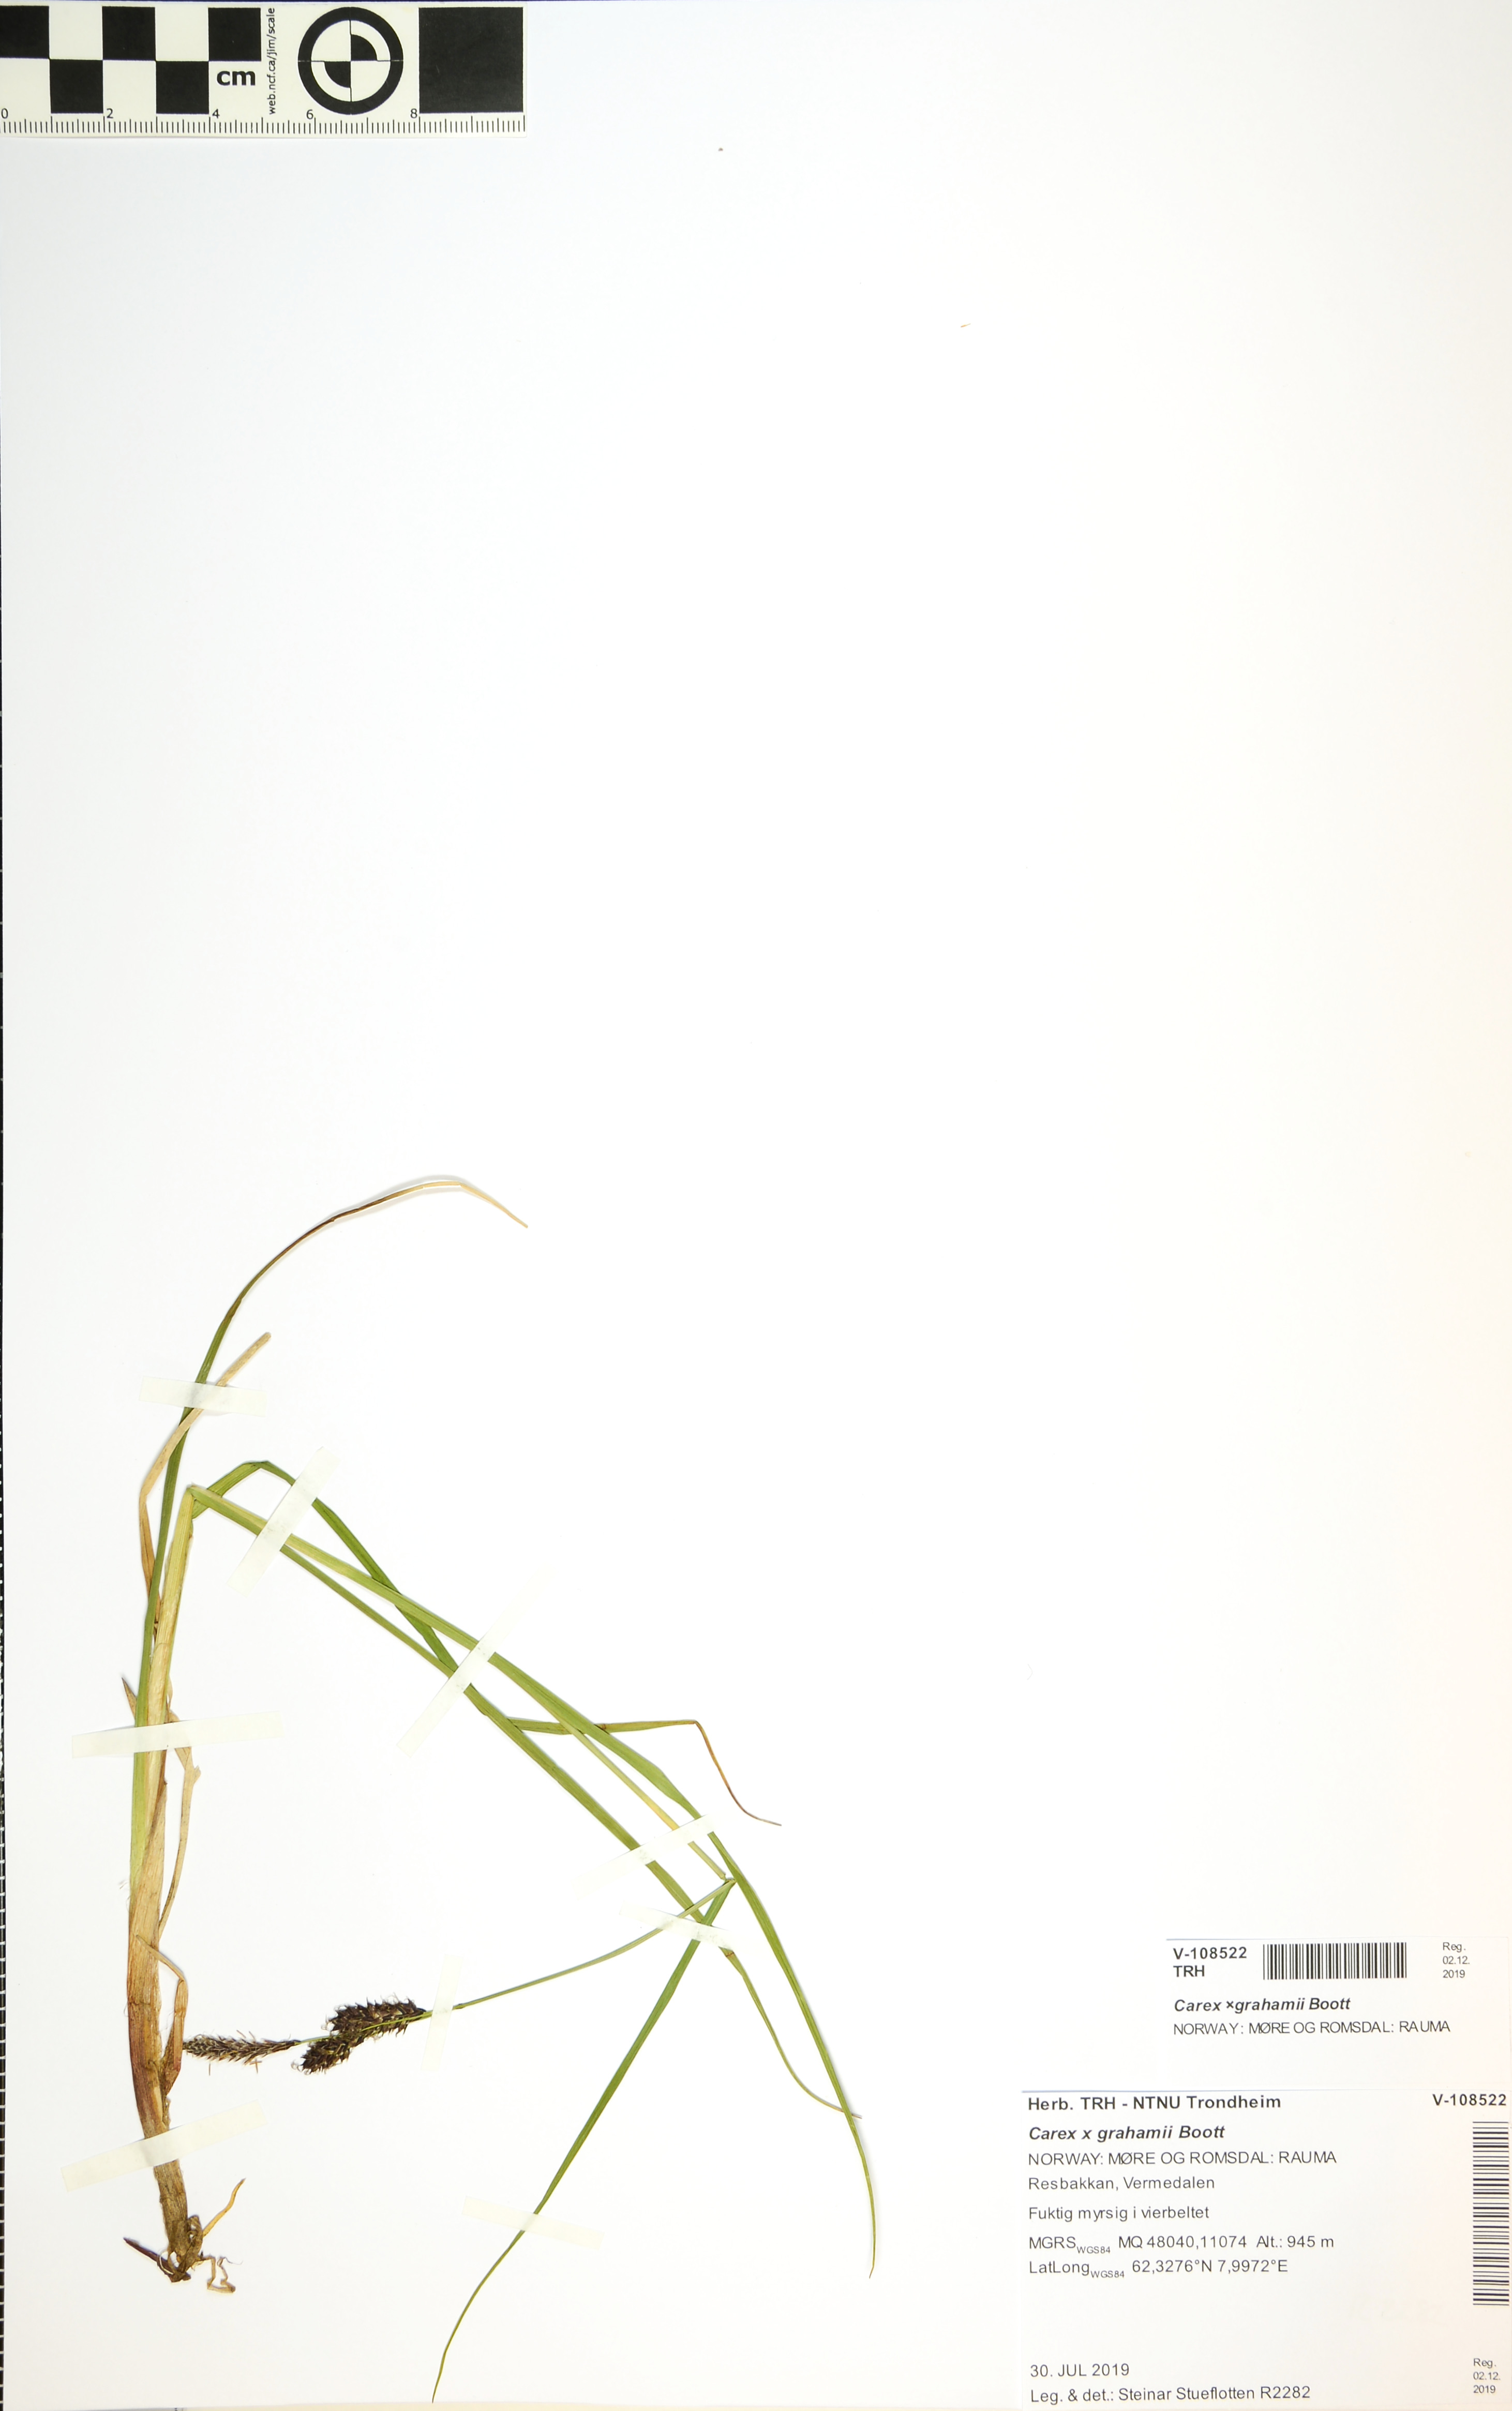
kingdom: Plantae
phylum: Tracheophyta
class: Liliopsida
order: Poales
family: Cyperaceae
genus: Carex
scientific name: Carex grahamii
